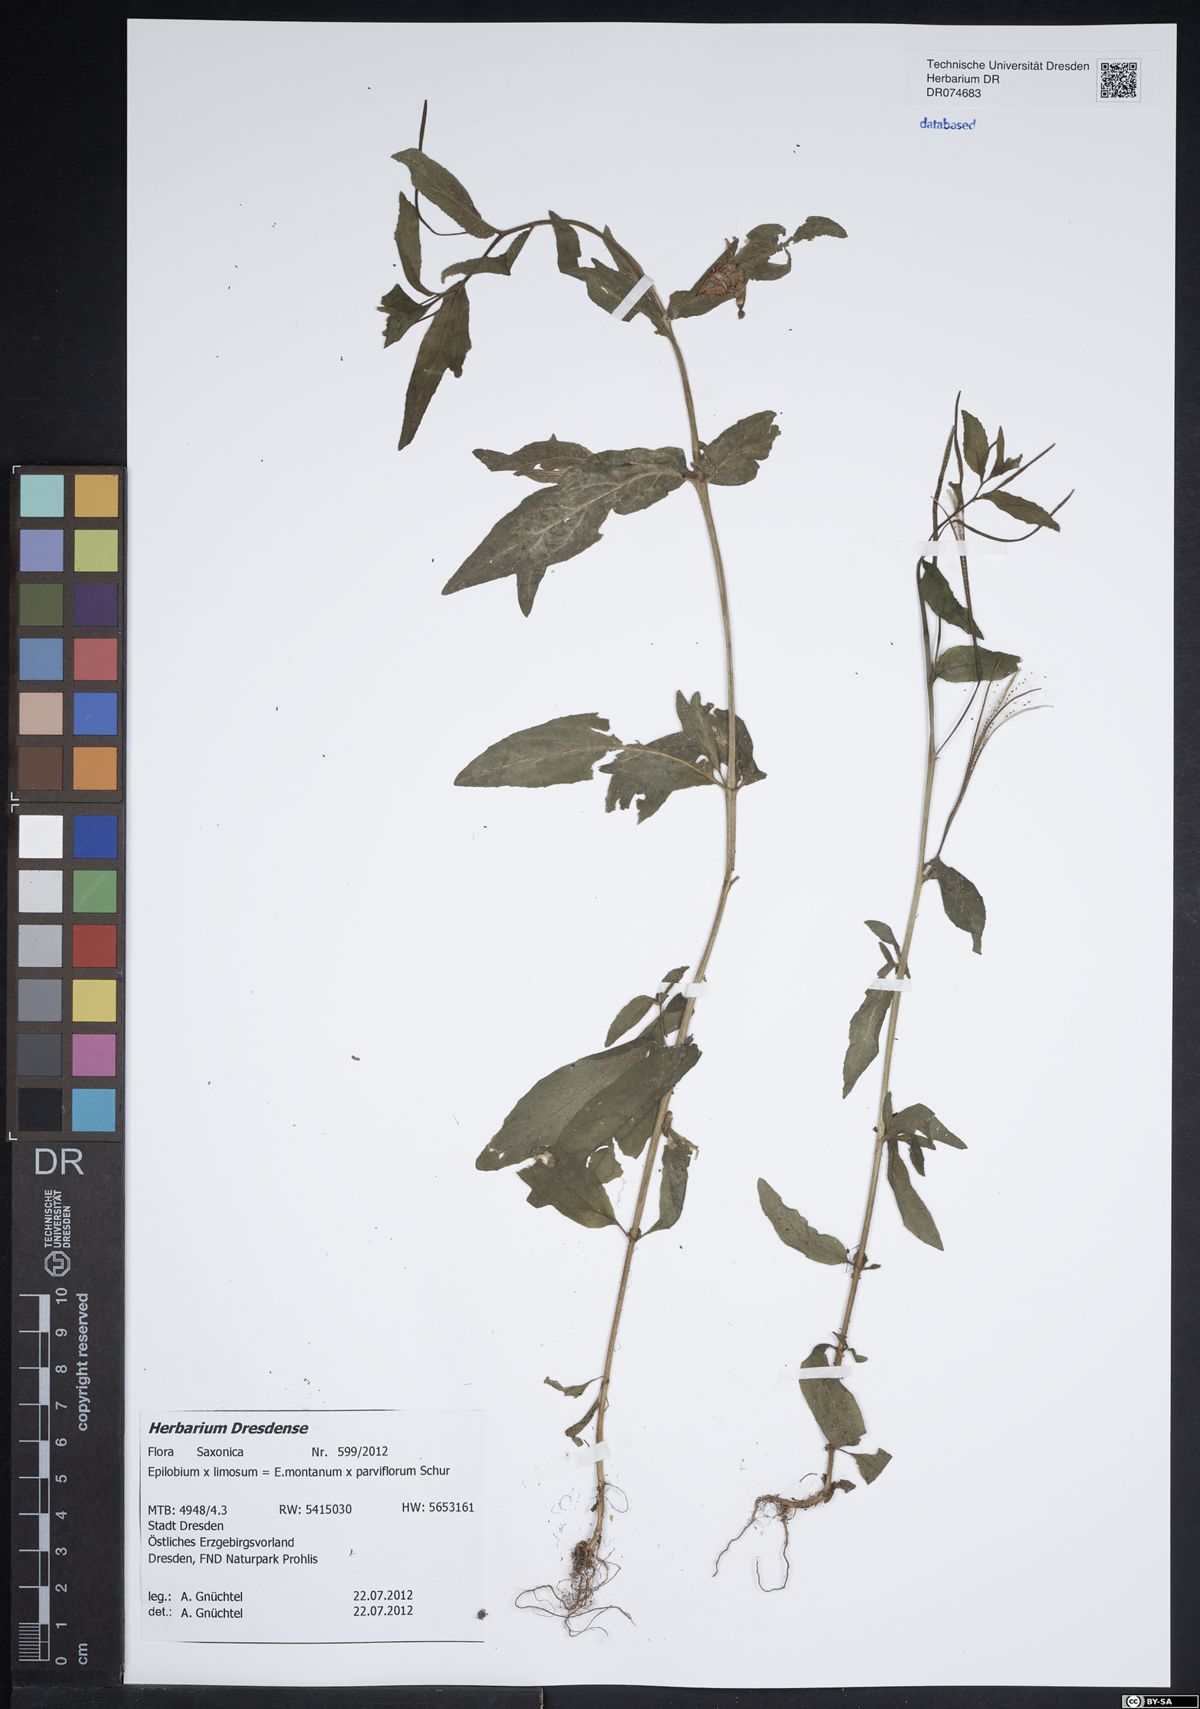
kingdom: Plantae
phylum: Tracheophyta
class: Magnoliopsida
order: Myrtales
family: Onagraceae
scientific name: Onagraceae
